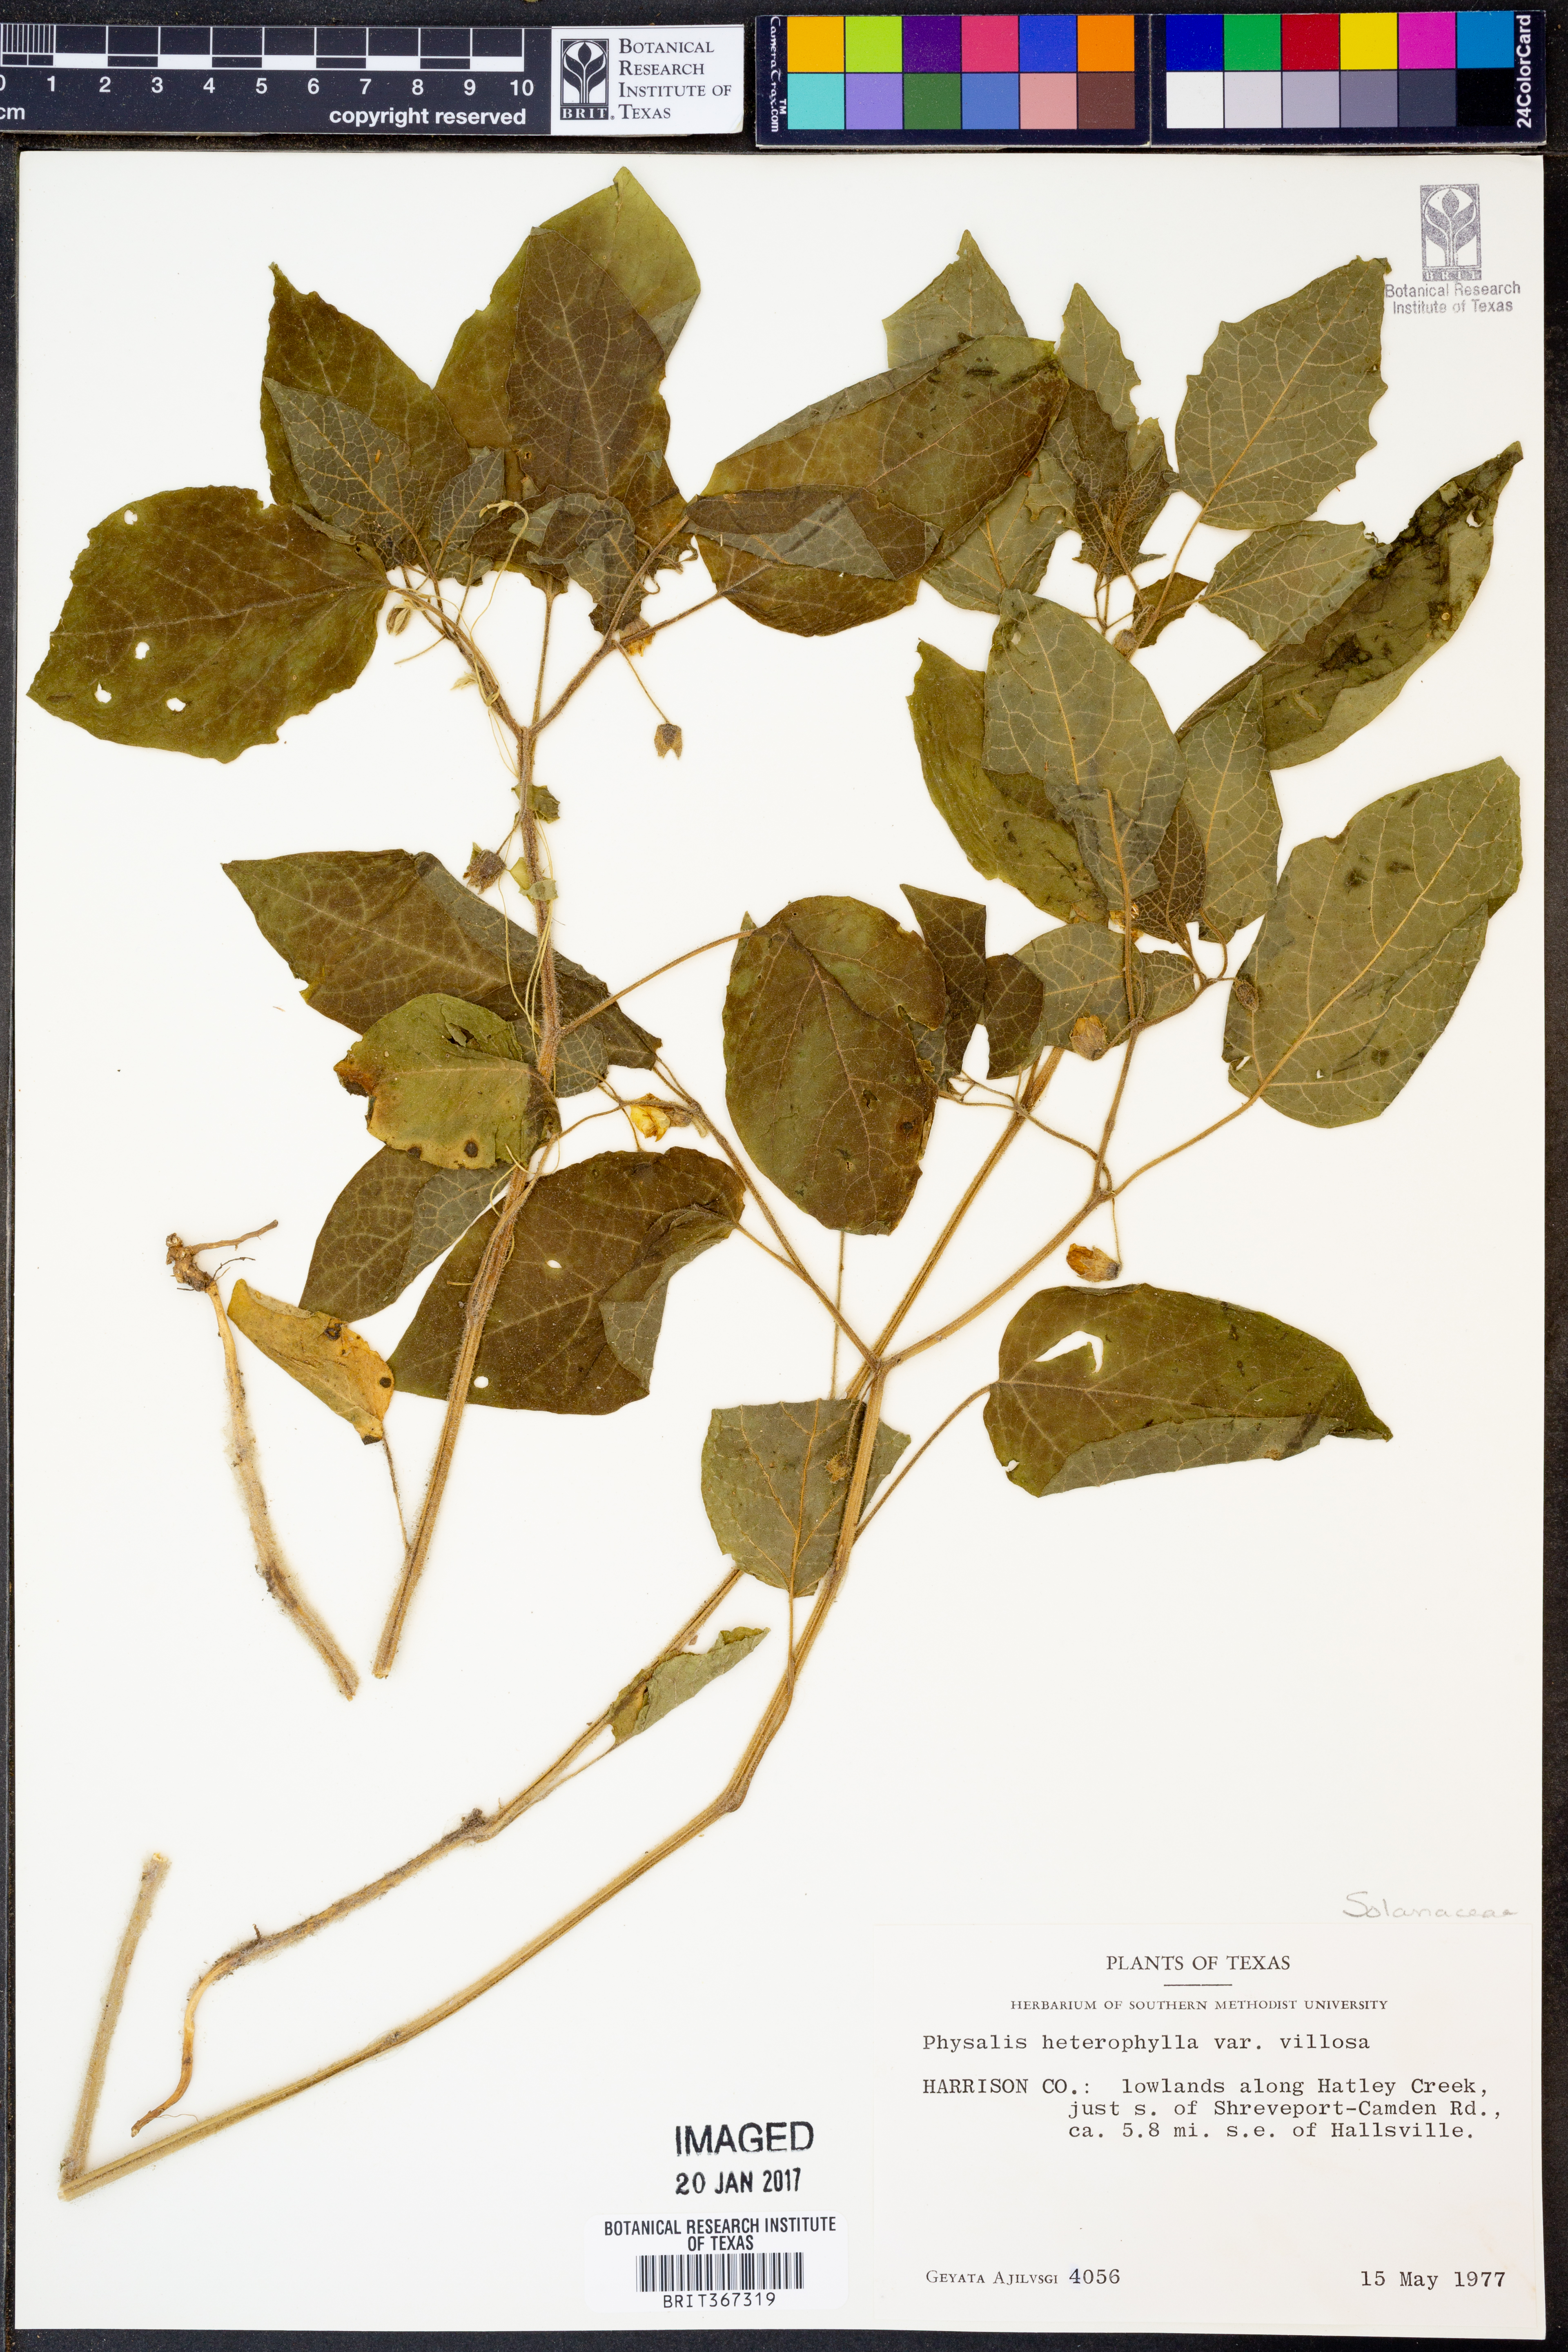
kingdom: Plantae
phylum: Tracheophyta
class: Magnoliopsida
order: Solanales
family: Solanaceae
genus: Physalis
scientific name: Physalis heterophylla
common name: Clammy ground-cherry
